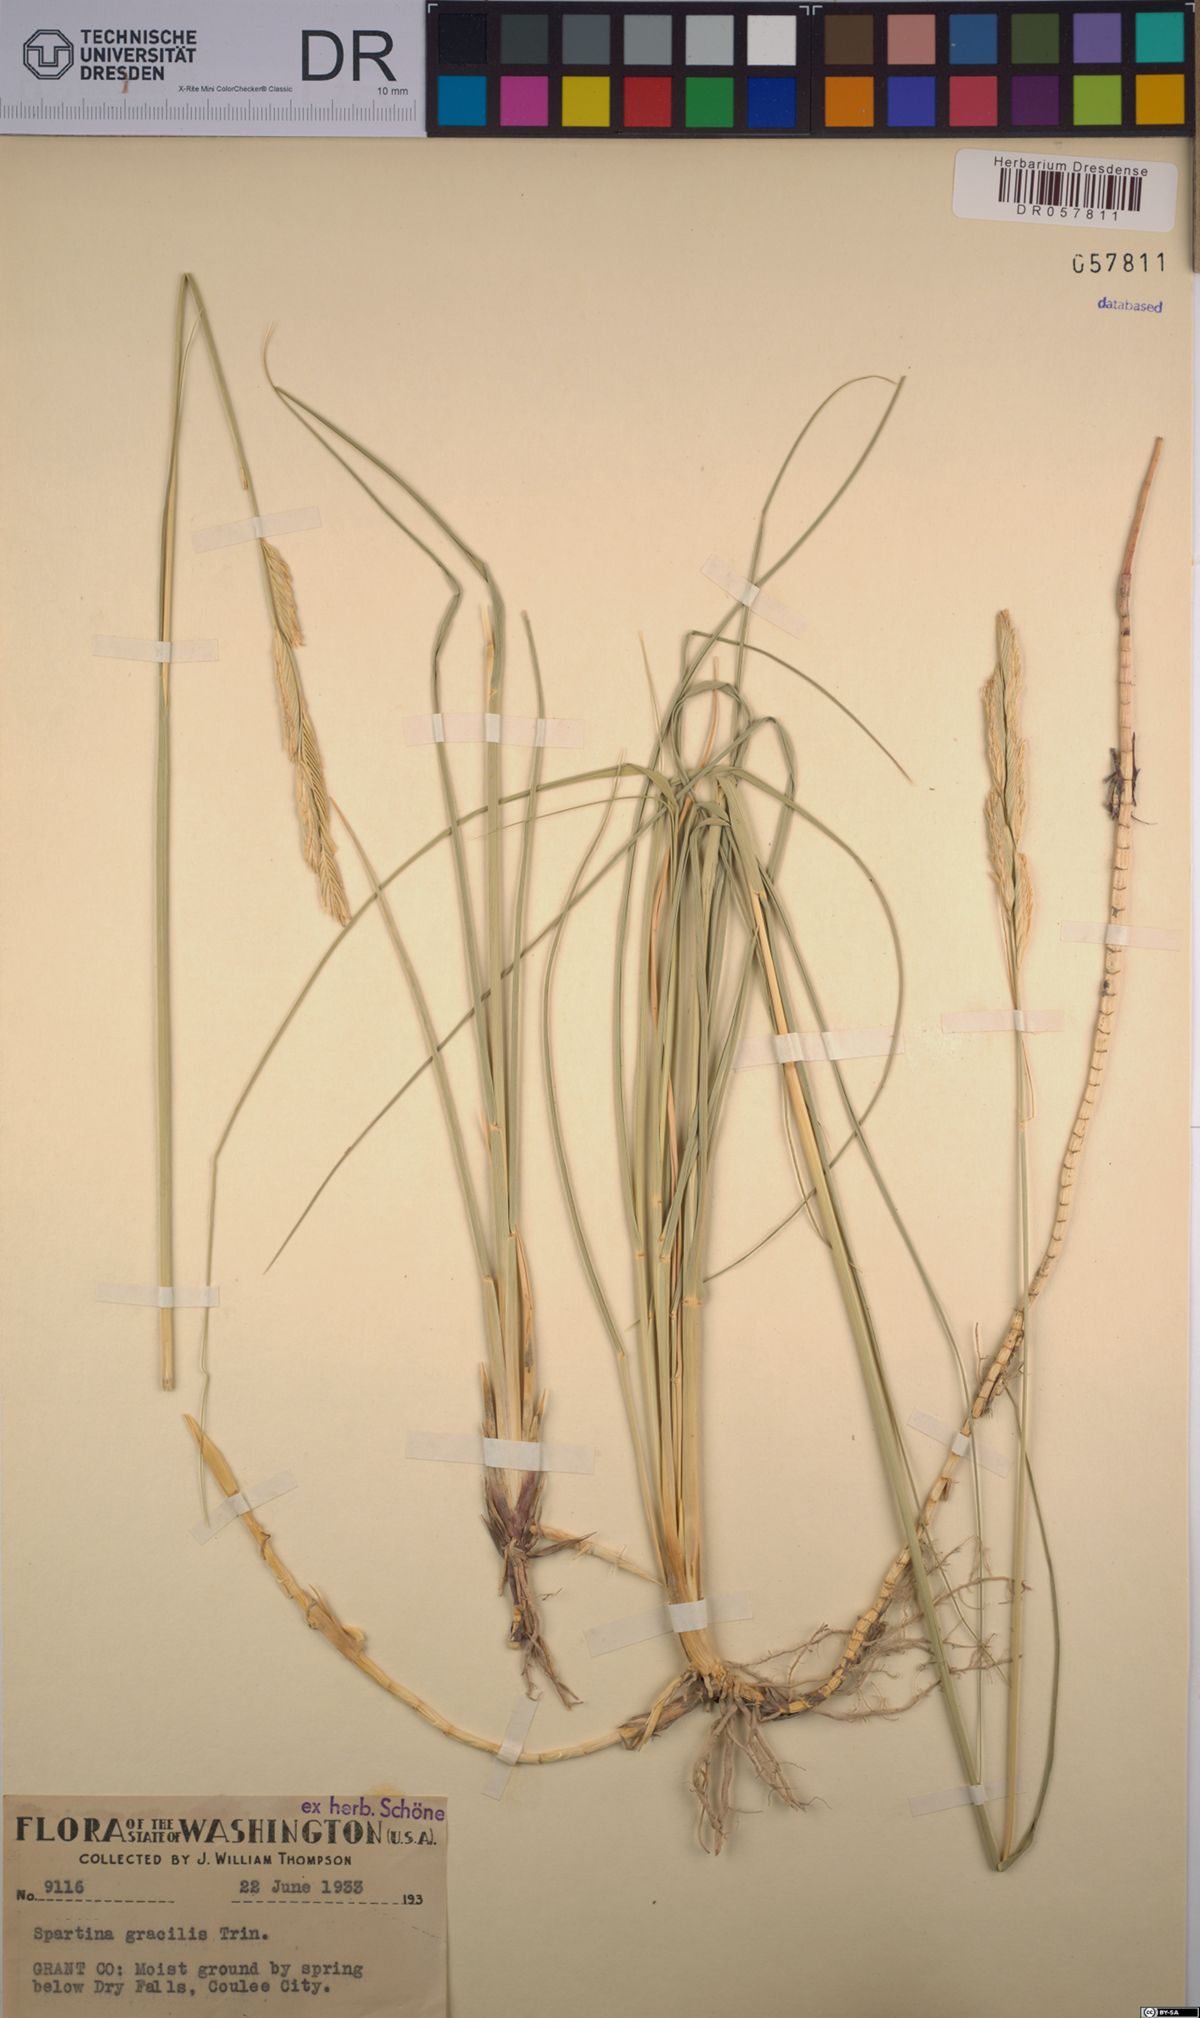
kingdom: Plantae
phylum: Tracheophyta
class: Liliopsida
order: Poales
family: Poaceae
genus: Sporobolus
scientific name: Sporobolus hookerianus
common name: Alkali cordgrass
